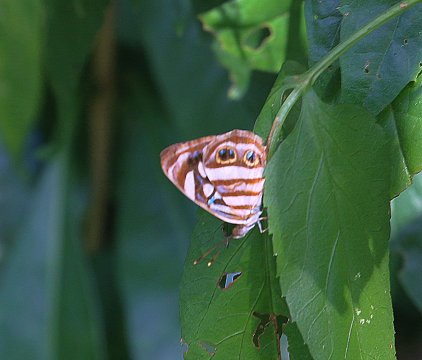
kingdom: Animalia
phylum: Arthropoda
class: Insecta
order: Lepidoptera
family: Nymphalidae
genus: Dynamine
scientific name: Dynamine mylitta
